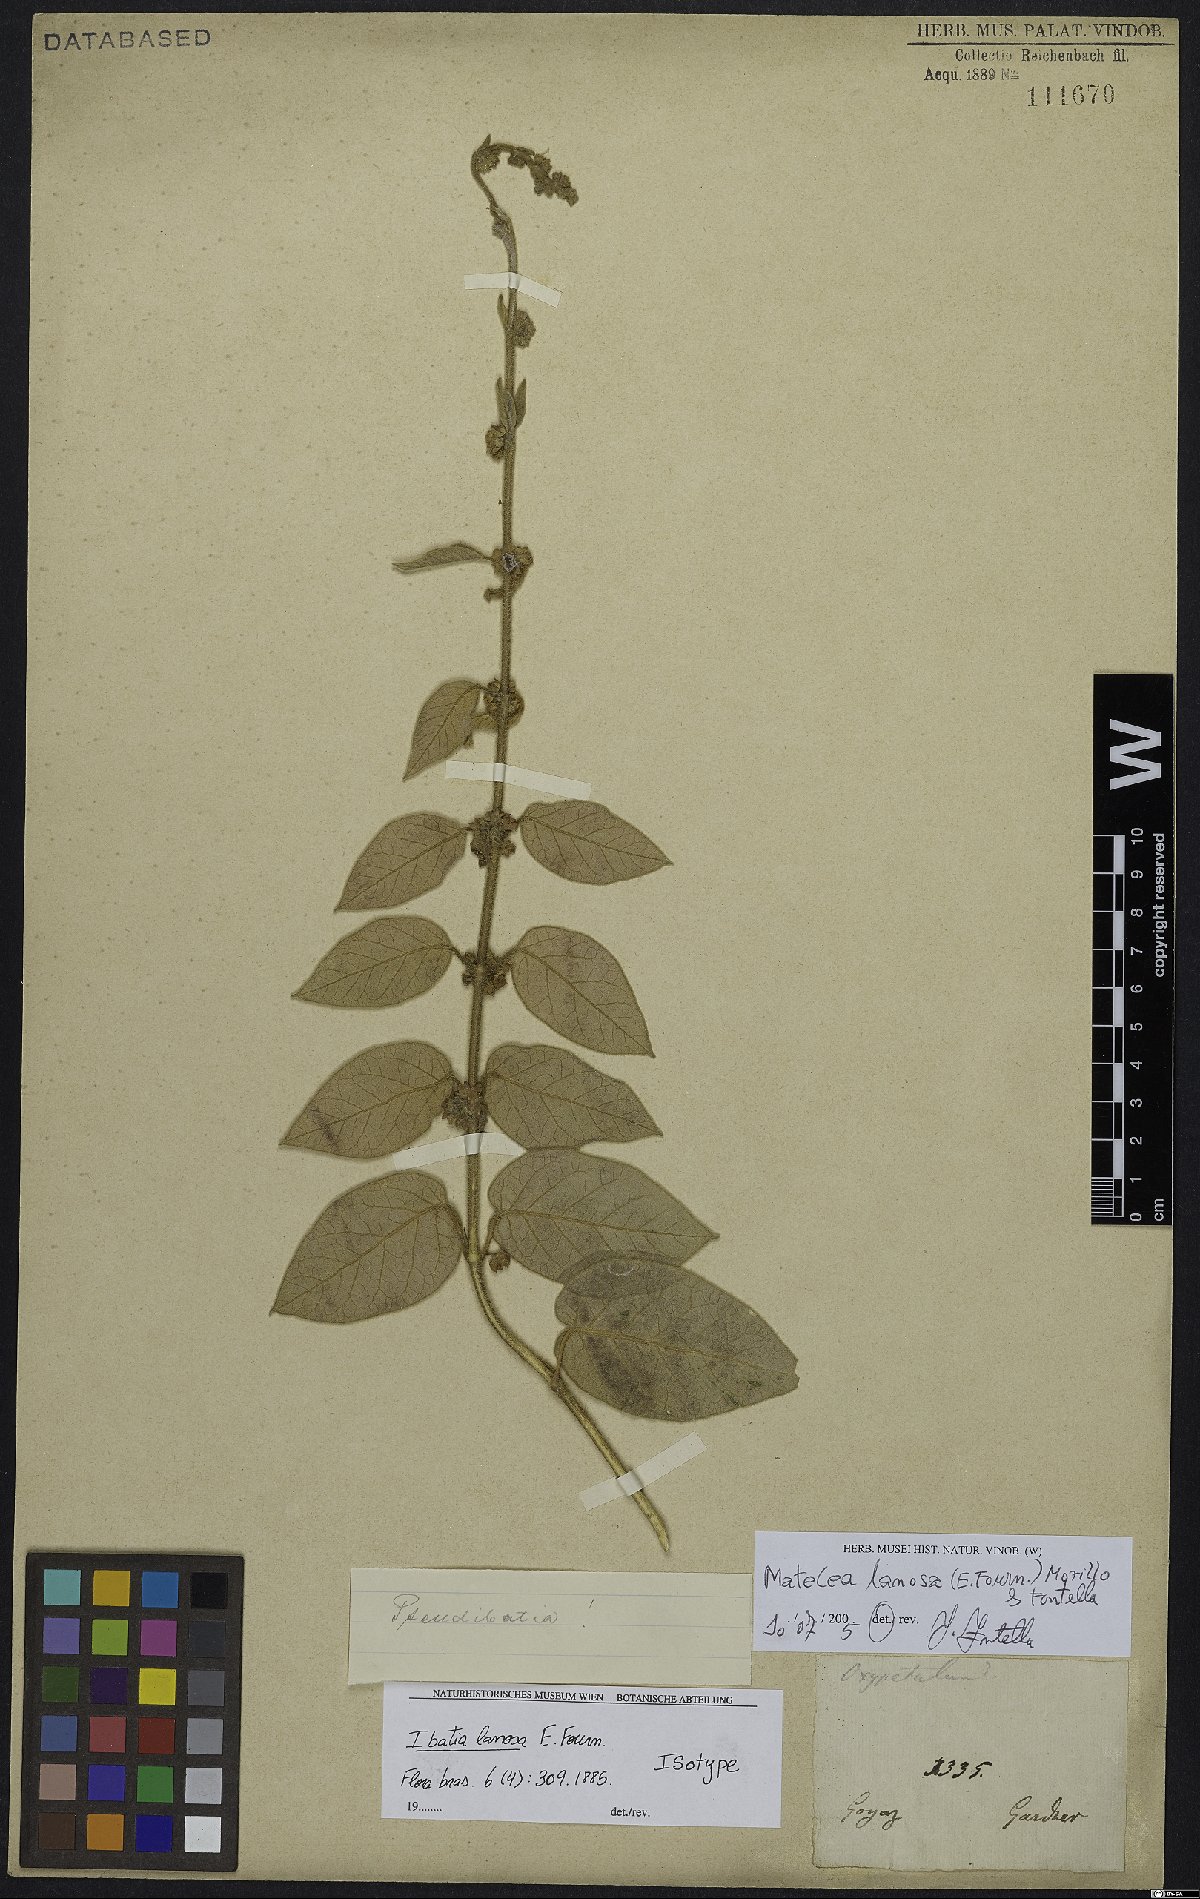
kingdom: Plantae
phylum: Tracheophyta
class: Magnoliopsida
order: Gentianales
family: Apocynaceae
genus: Ibatia
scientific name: Ibatia lanosa
